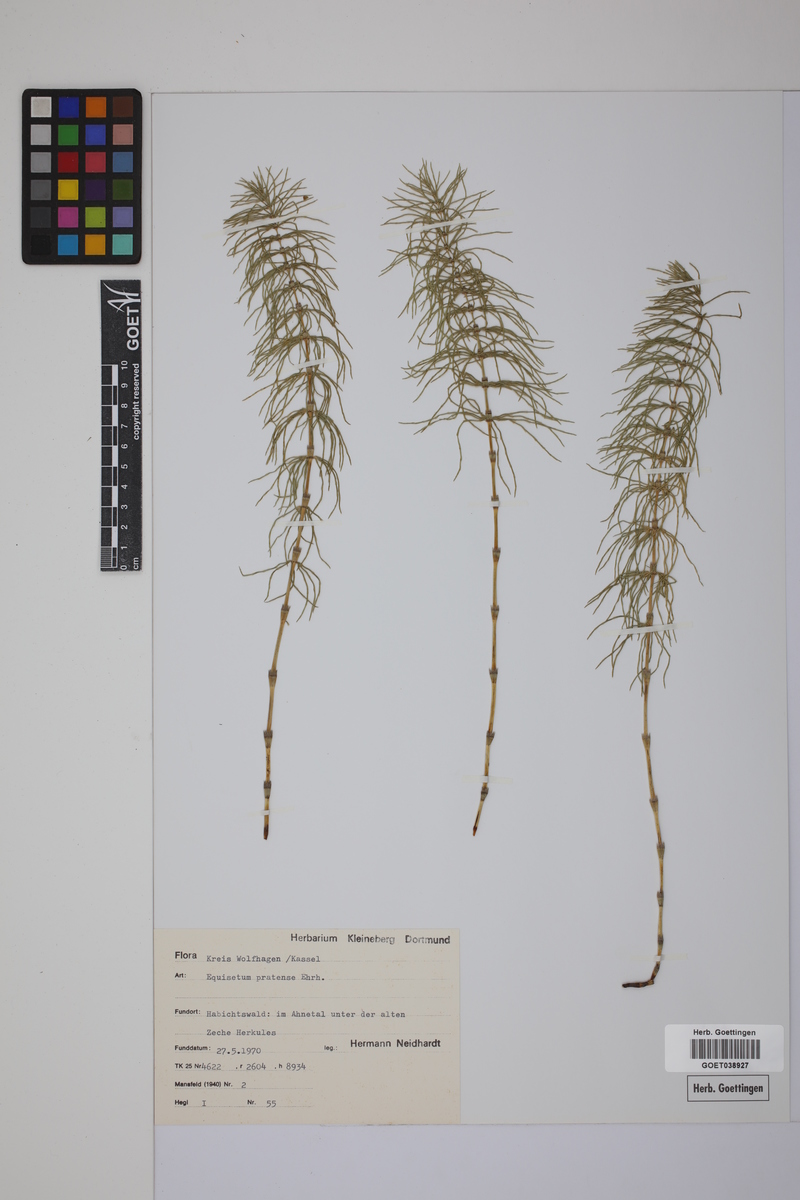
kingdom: Plantae
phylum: Tracheophyta
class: Polypodiopsida
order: Equisetales
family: Equisetaceae
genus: Equisetum
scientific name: Equisetum pratense
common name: Meadow horsetail
